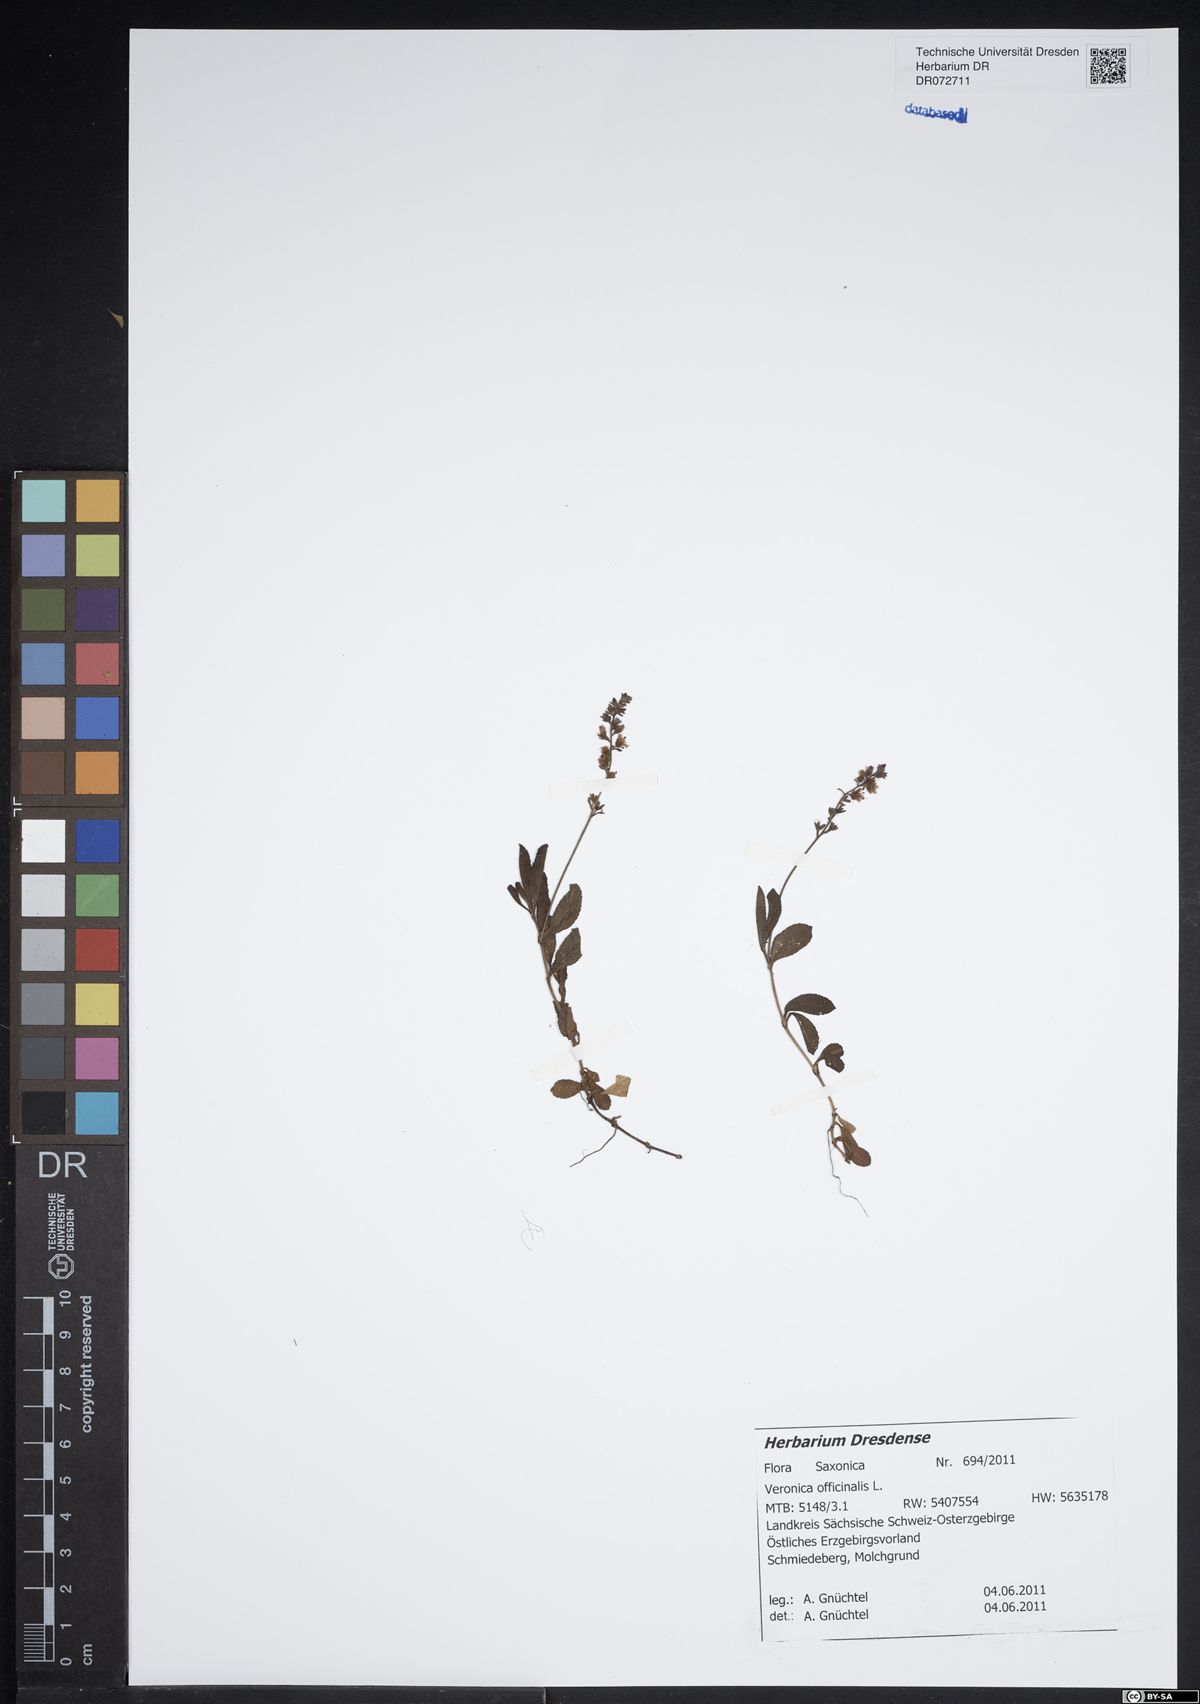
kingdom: Plantae
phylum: Tracheophyta
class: Magnoliopsida
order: Lamiales
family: Plantaginaceae
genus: Veronica
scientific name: Veronica officinalis
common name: Common speedwell
